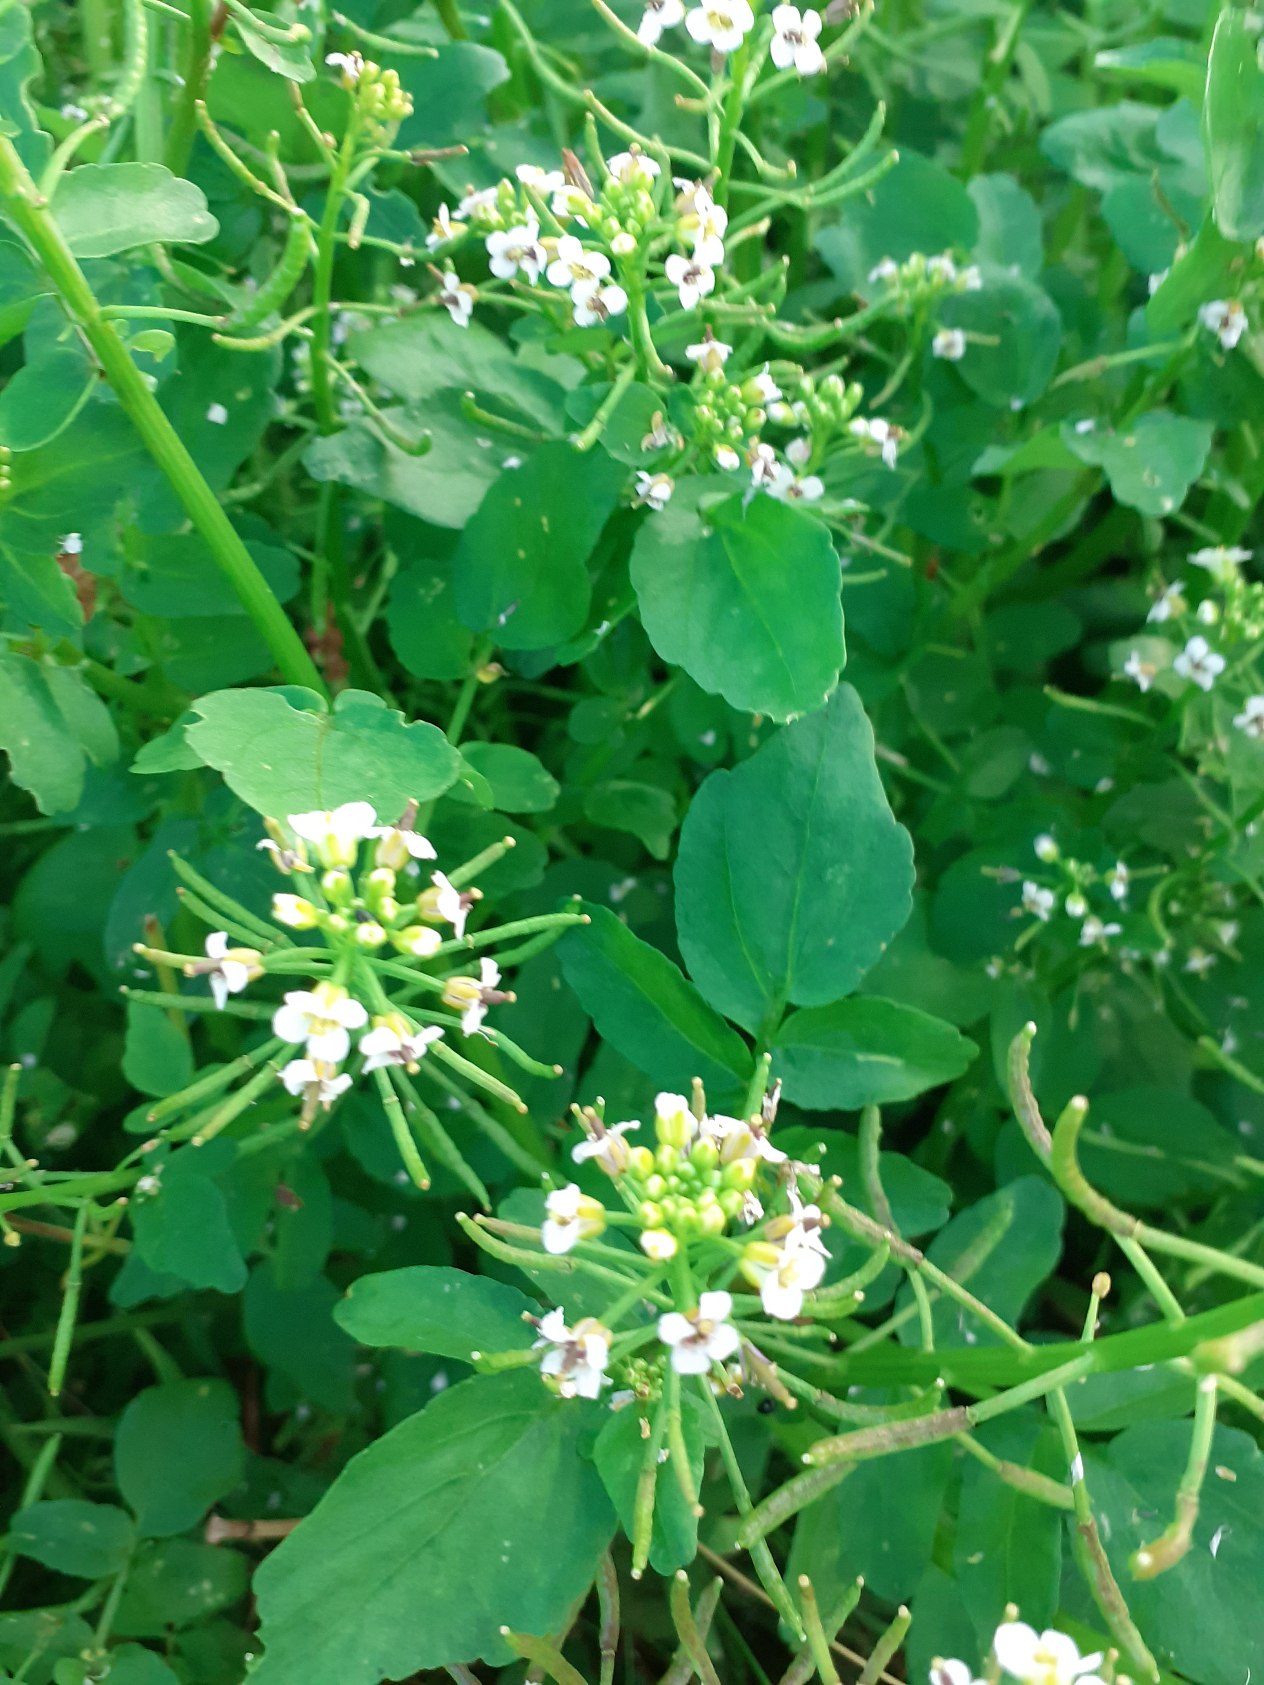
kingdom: Plantae
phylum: Tracheophyta
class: Magnoliopsida
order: Brassicales
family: Brassicaceae
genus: Nasturtium
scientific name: Nasturtium officinale
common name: Tykskulpet brøndkarse
